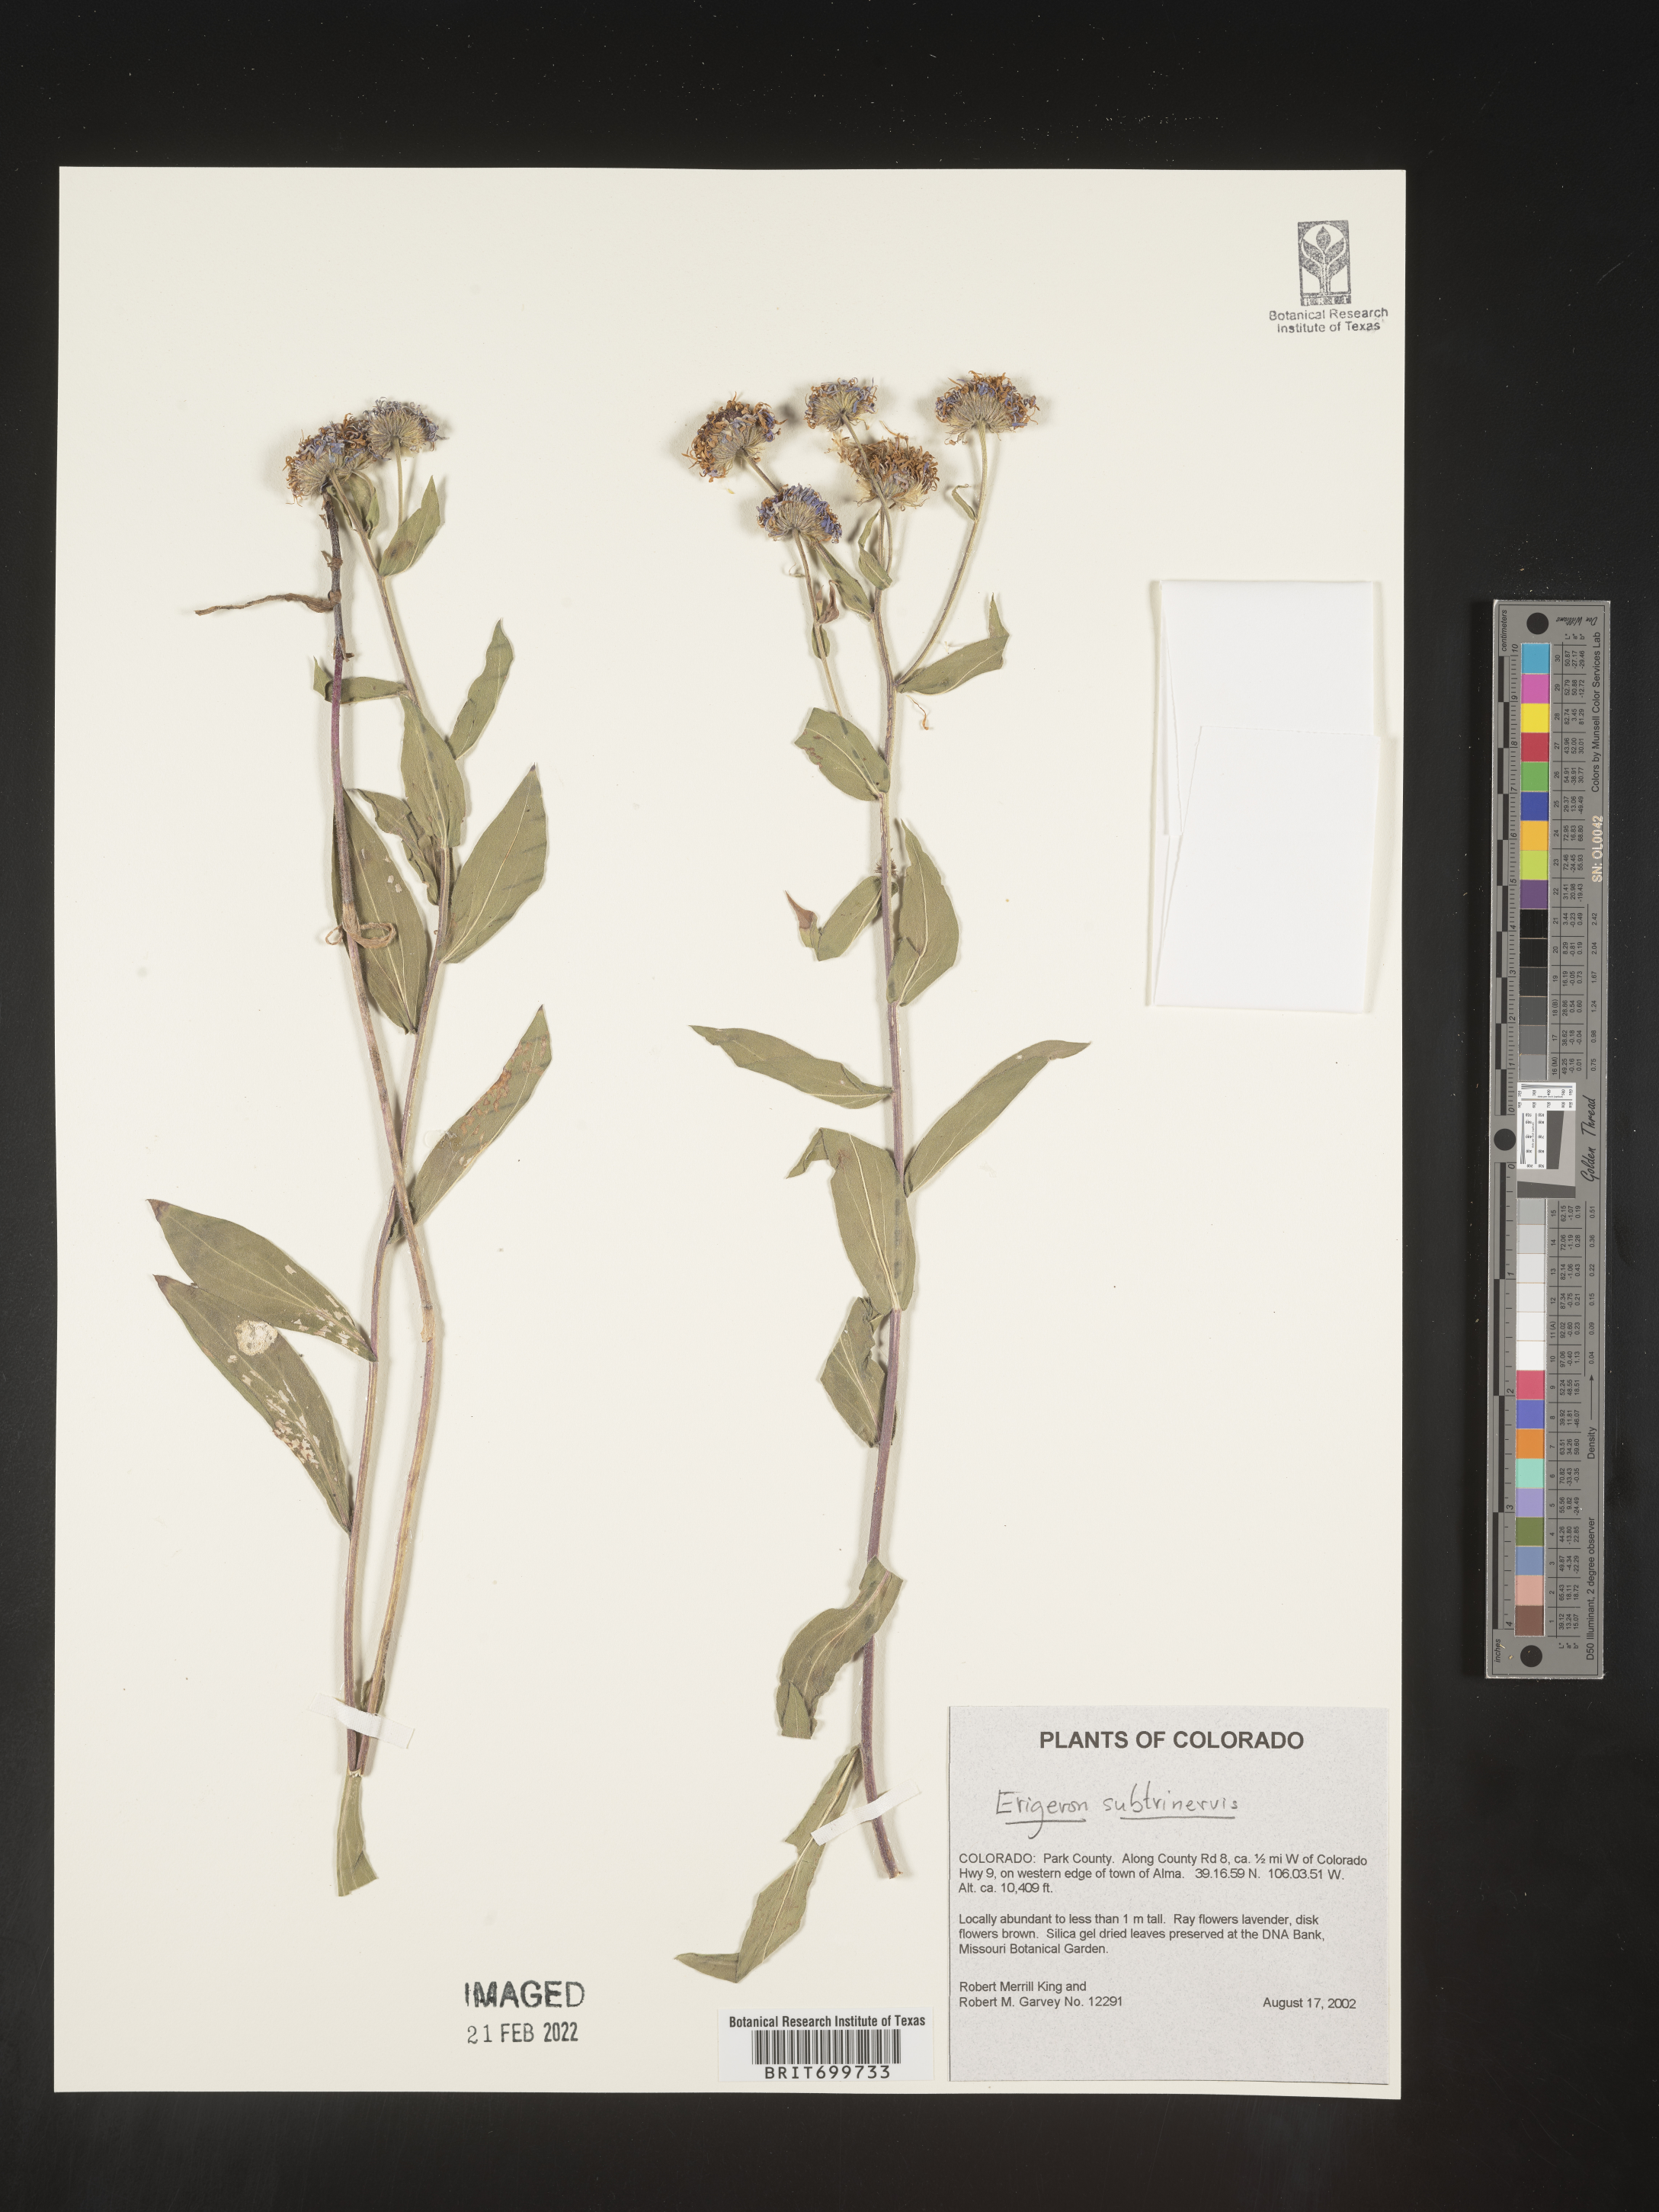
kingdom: Plantae
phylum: Tracheophyta
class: Magnoliopsida
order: Asterales
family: Asteraceae
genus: Erigeron
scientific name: Erigeron subtrinervis
